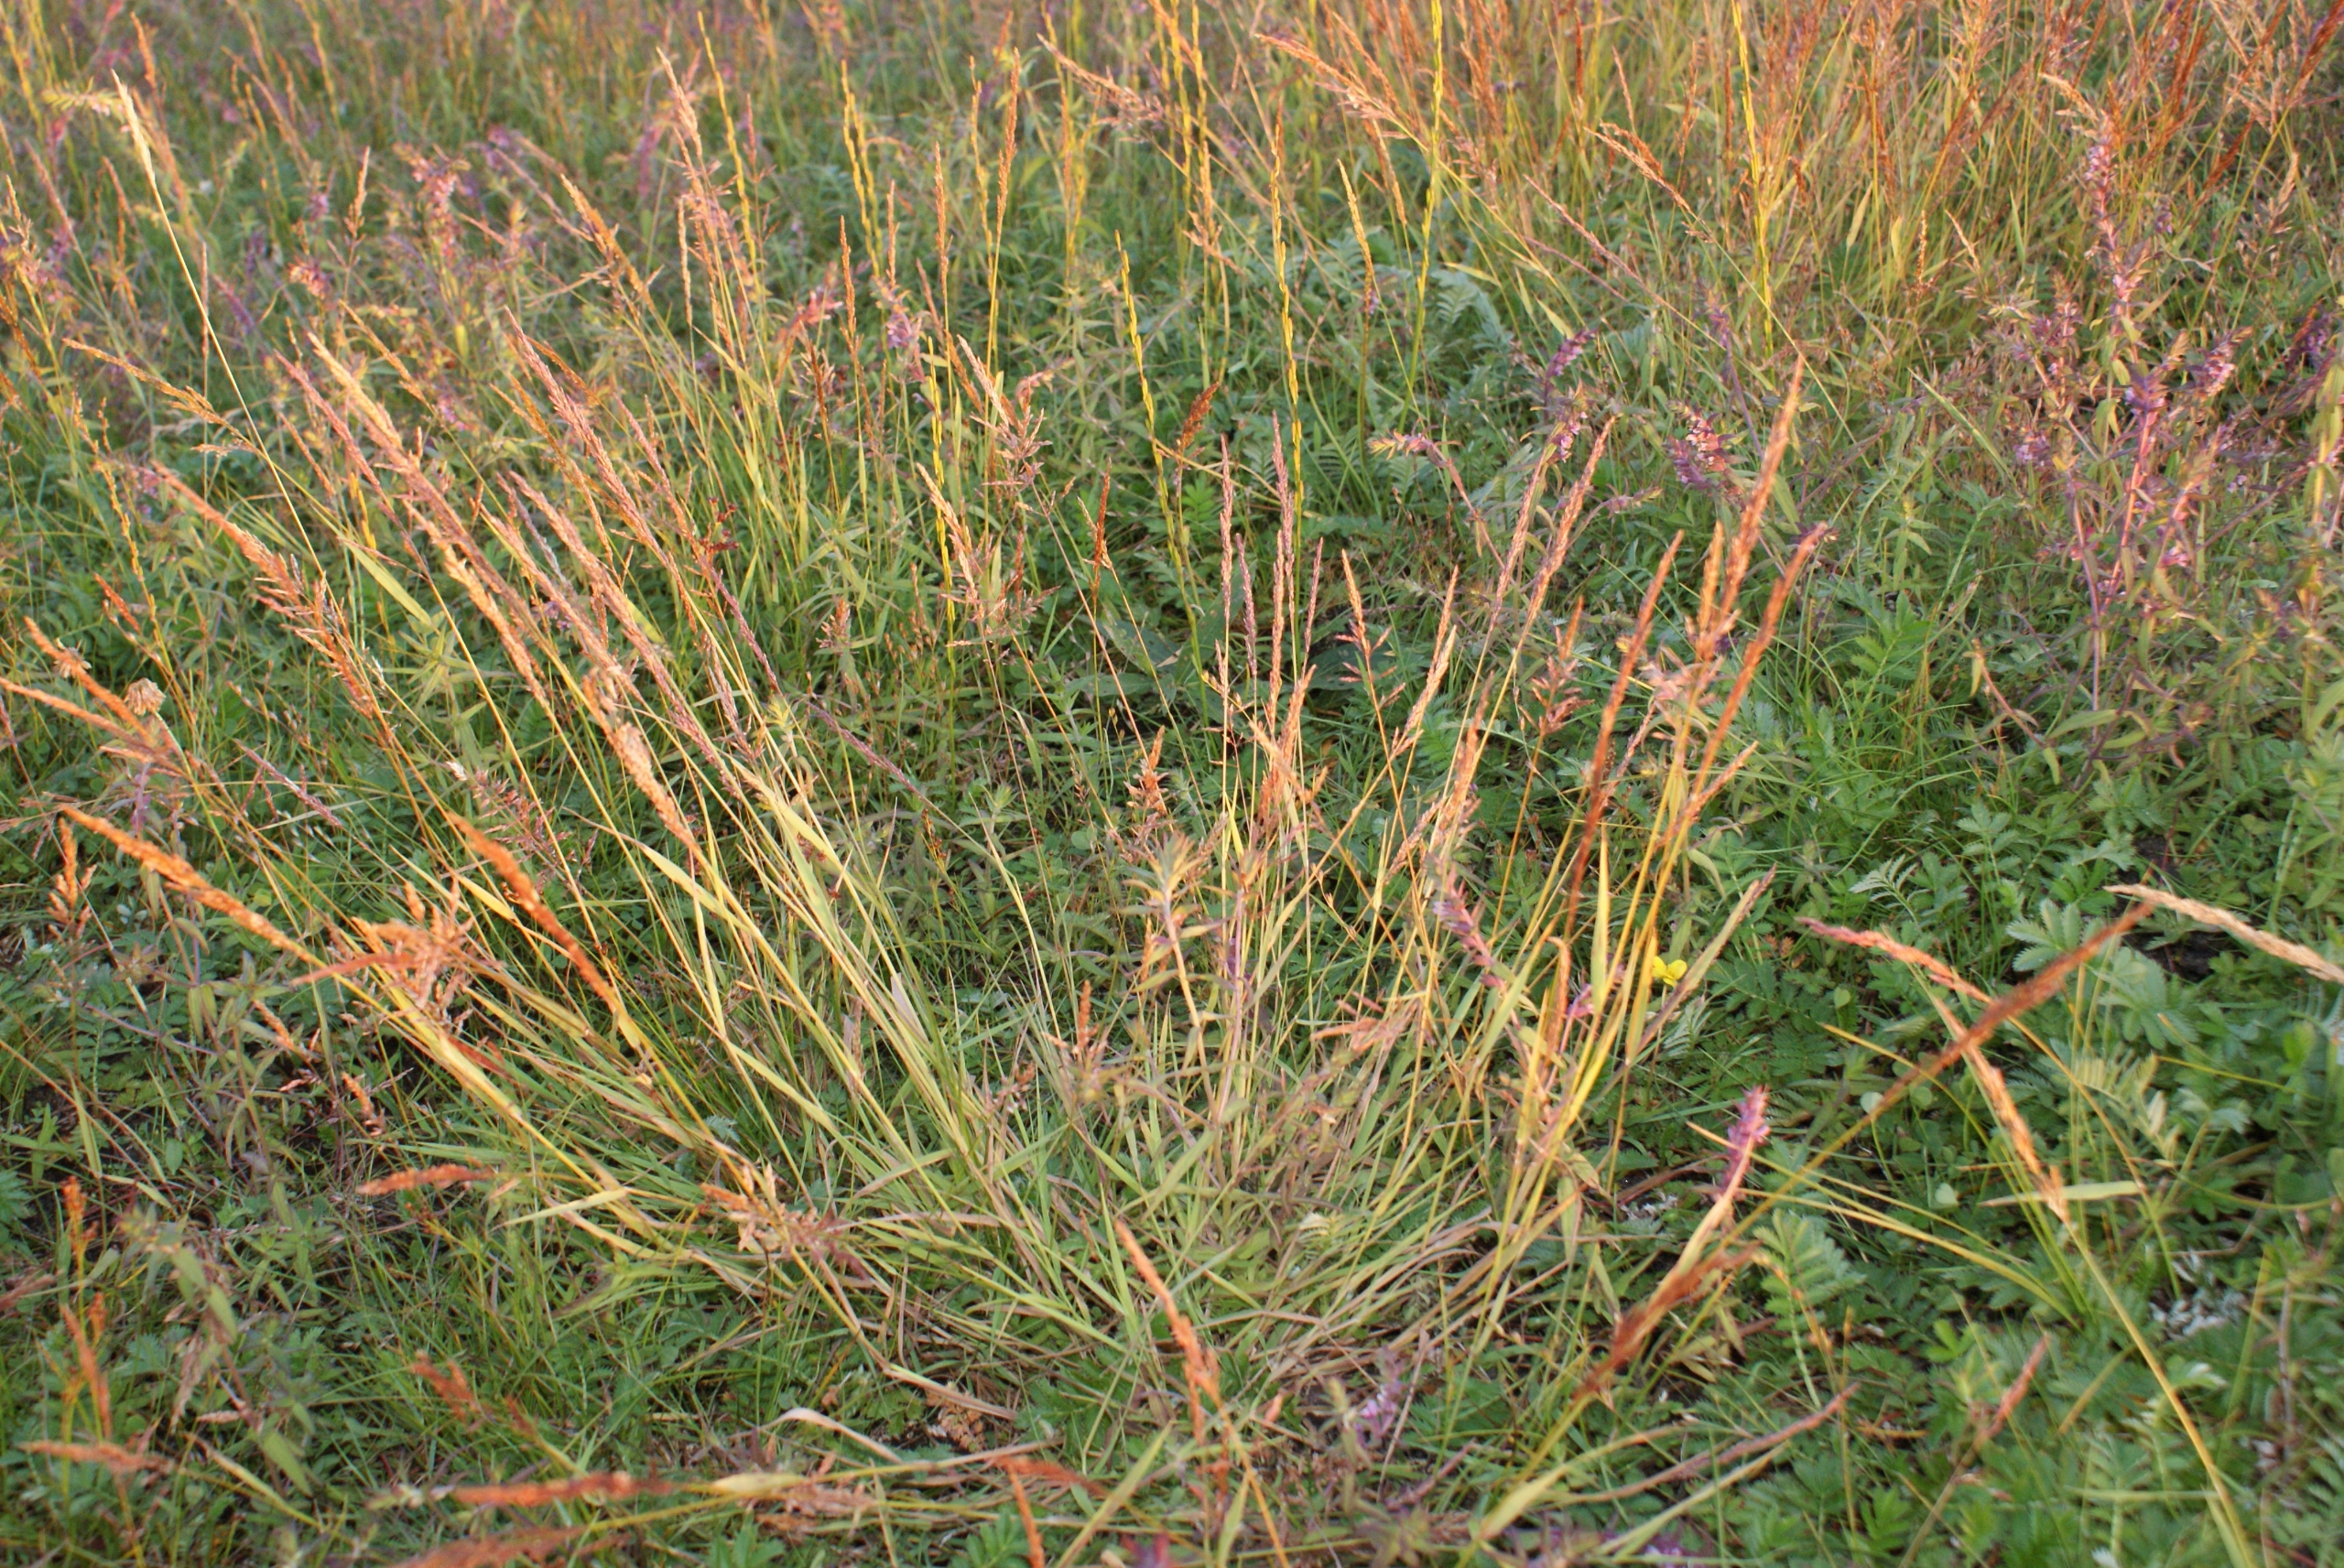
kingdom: Plantae
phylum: Tracheophyta
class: Liliopsida
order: Poales
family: Poaceae
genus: Puccinellia
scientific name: Puccinellia maritima
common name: Strand-annelgræs
